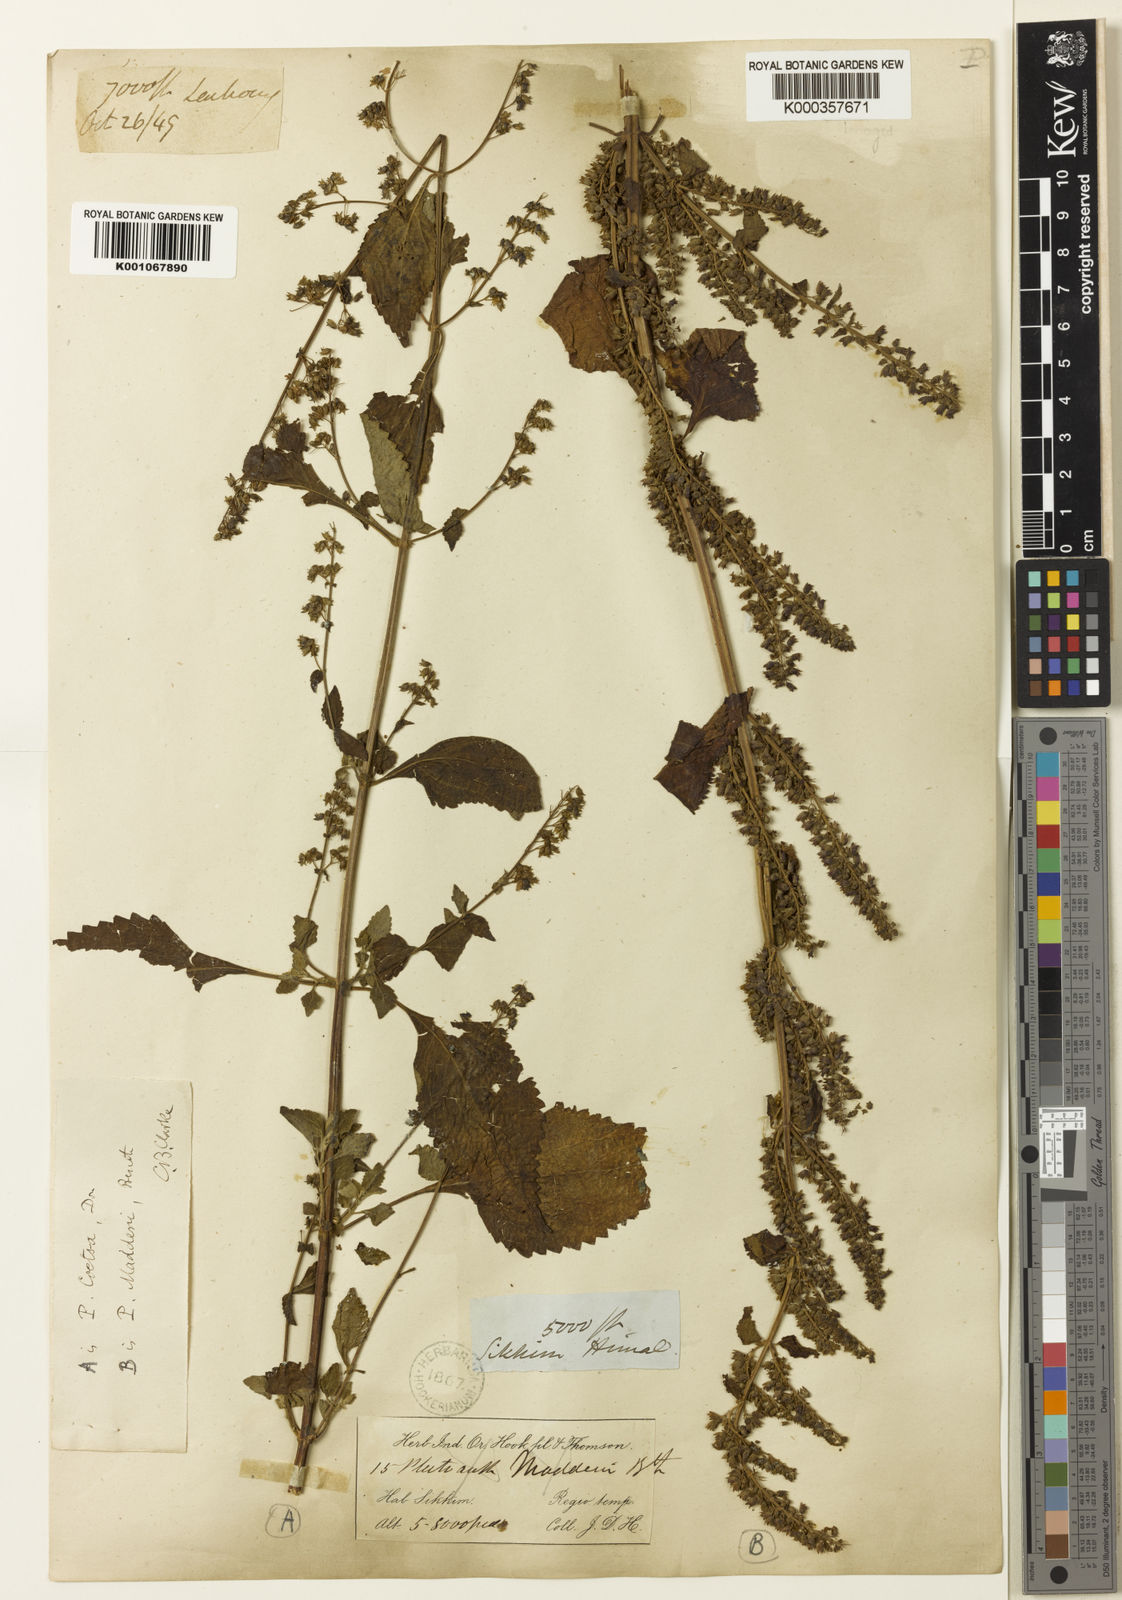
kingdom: Plantae
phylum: Tracheophyta
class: Magnoliopsida
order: Lamiales
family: Lamiaceae
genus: Isodon
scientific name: Isodon
